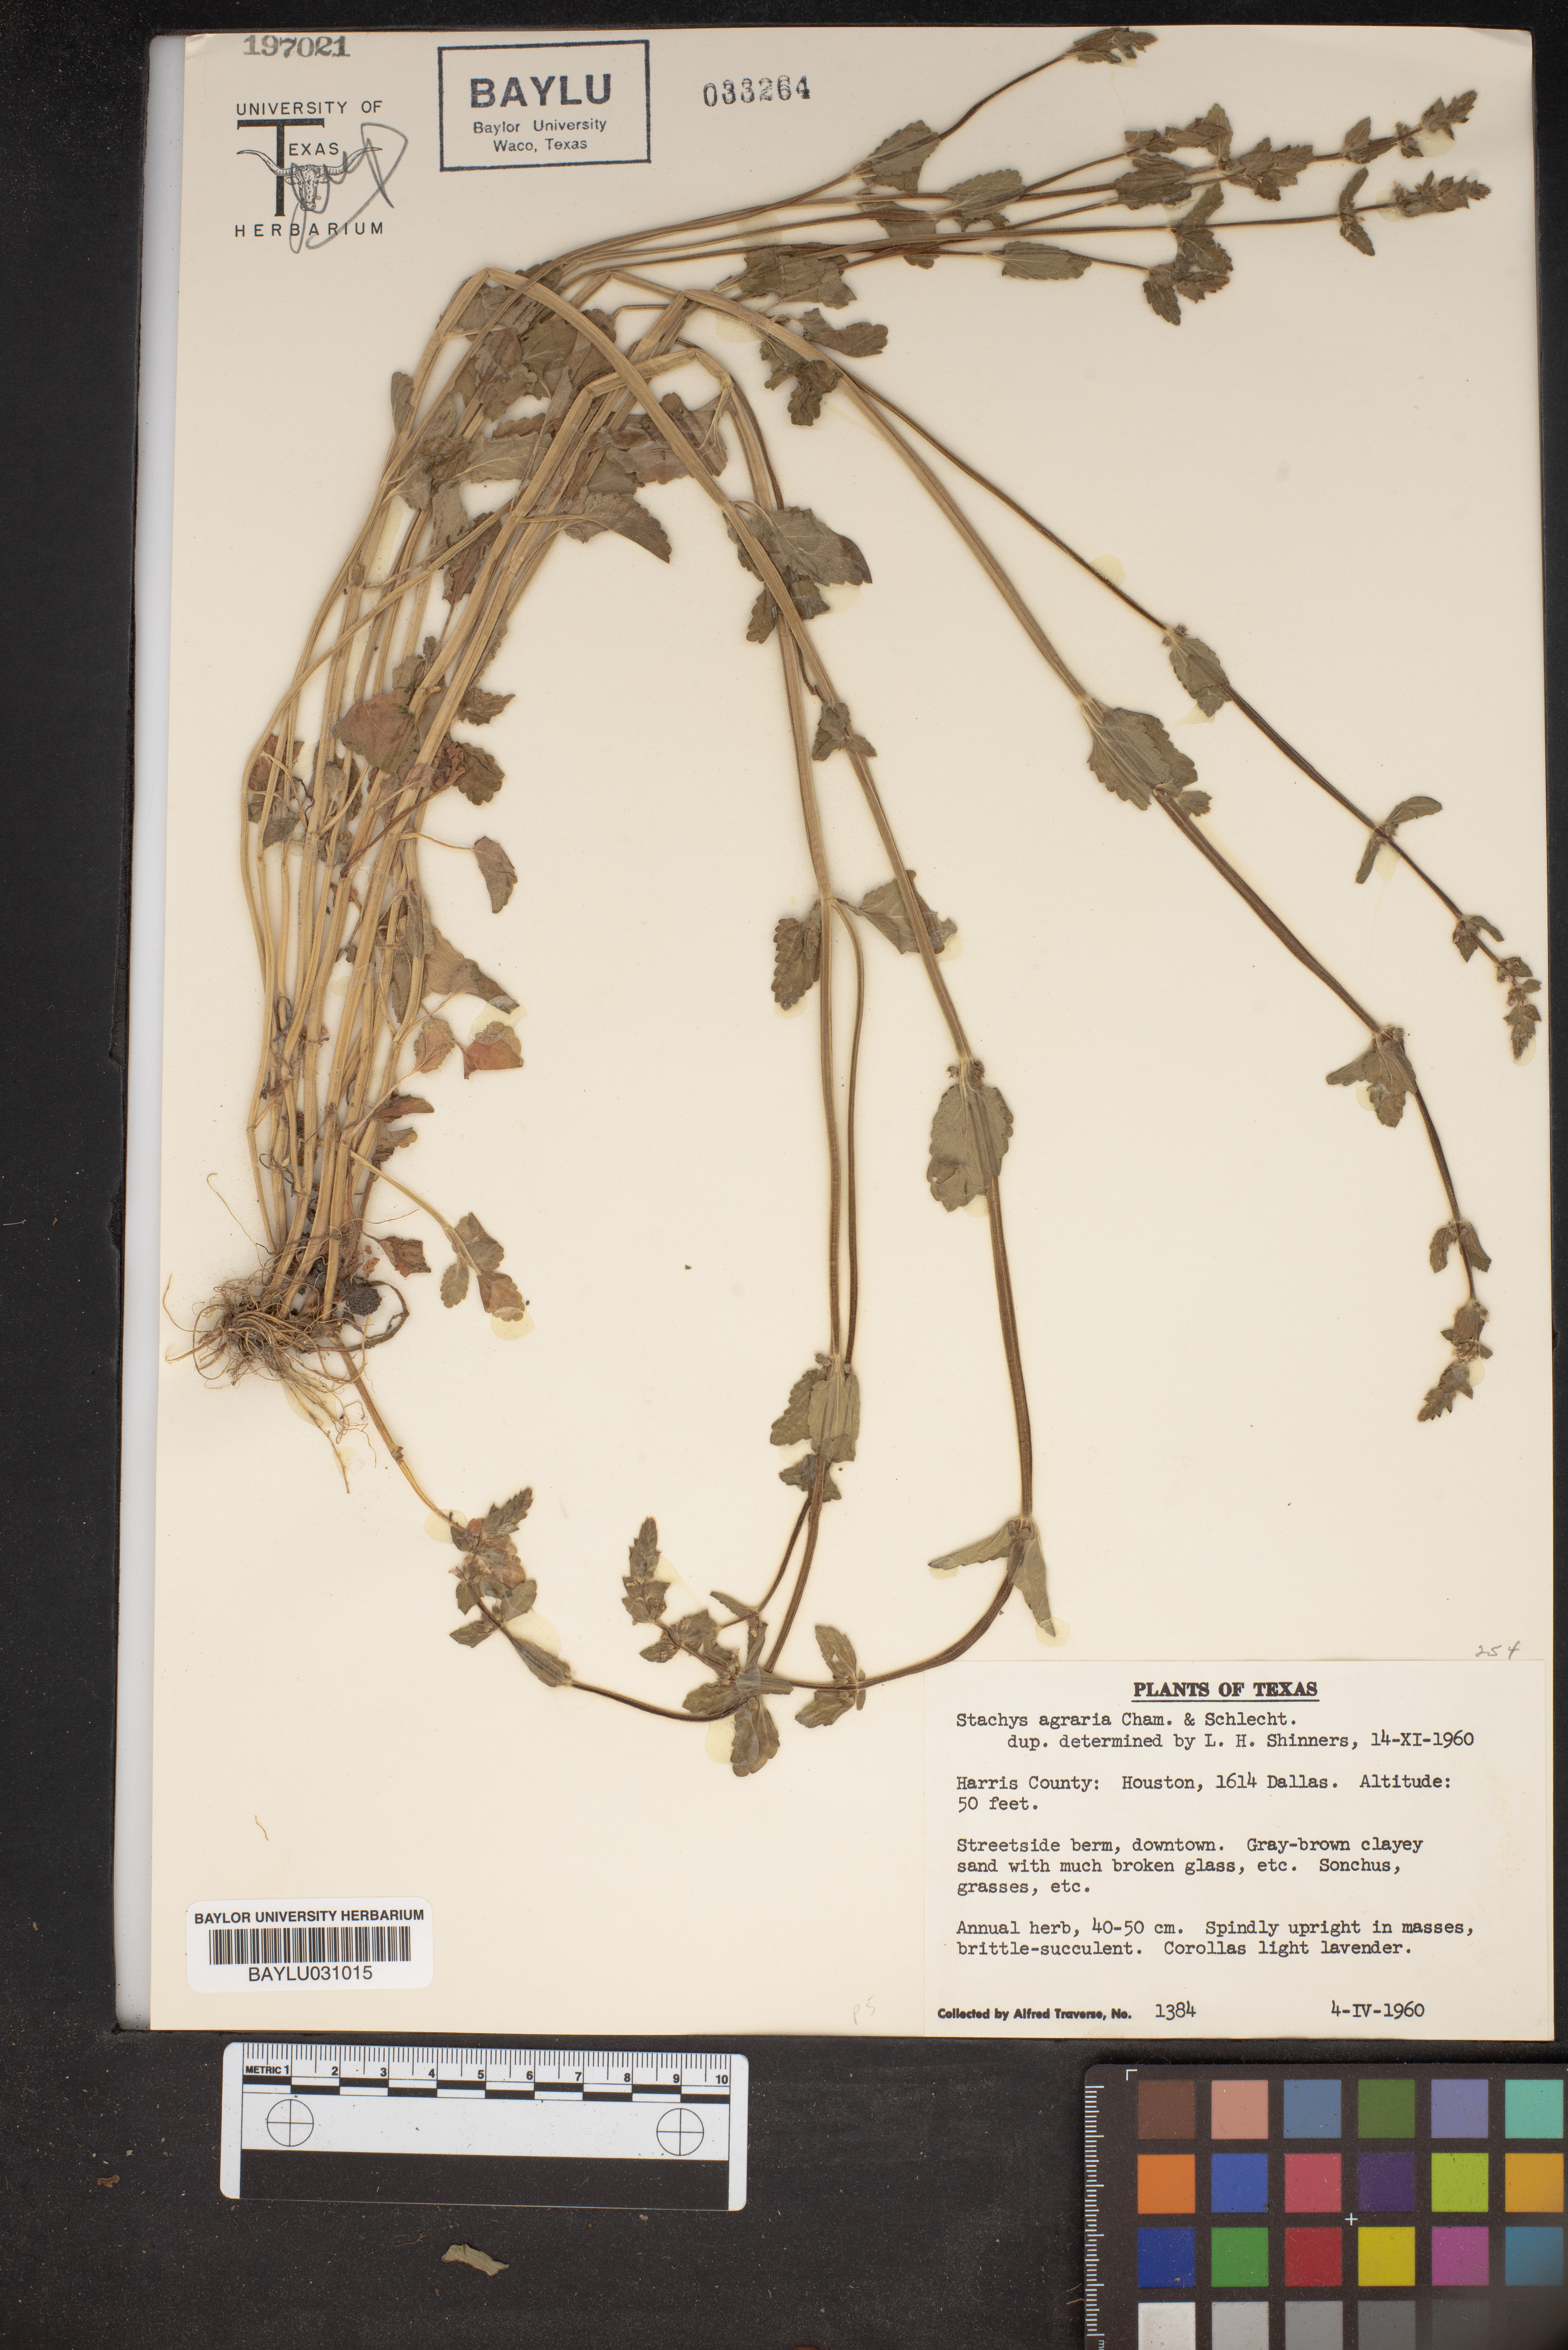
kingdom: Plantae
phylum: Tracheophyta
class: Magnoliopsida
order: Lamiales
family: Lamiaceae
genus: Stachys
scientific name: Stachys agraria
